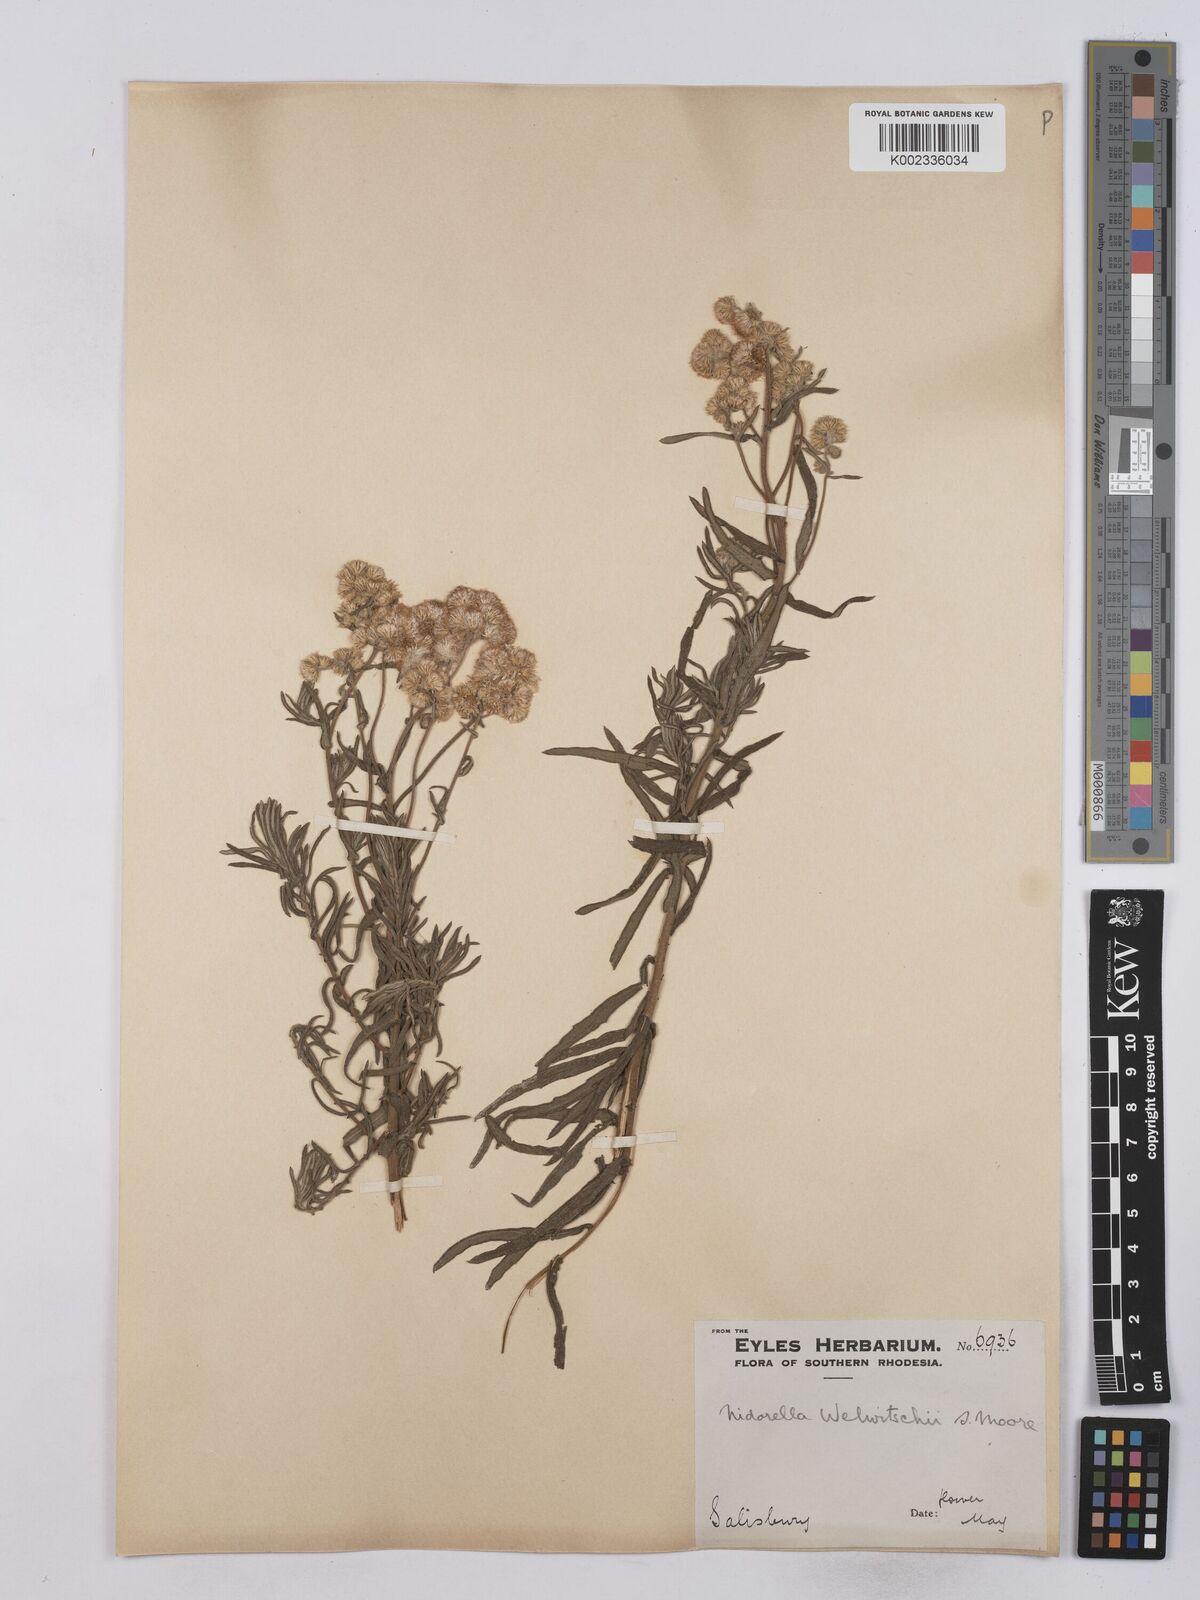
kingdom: Plantae
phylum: Tracheophyta
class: Magnoliopsida
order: Asterales
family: Asteraceae
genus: Nidorella
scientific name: Nidorella welwitschii
